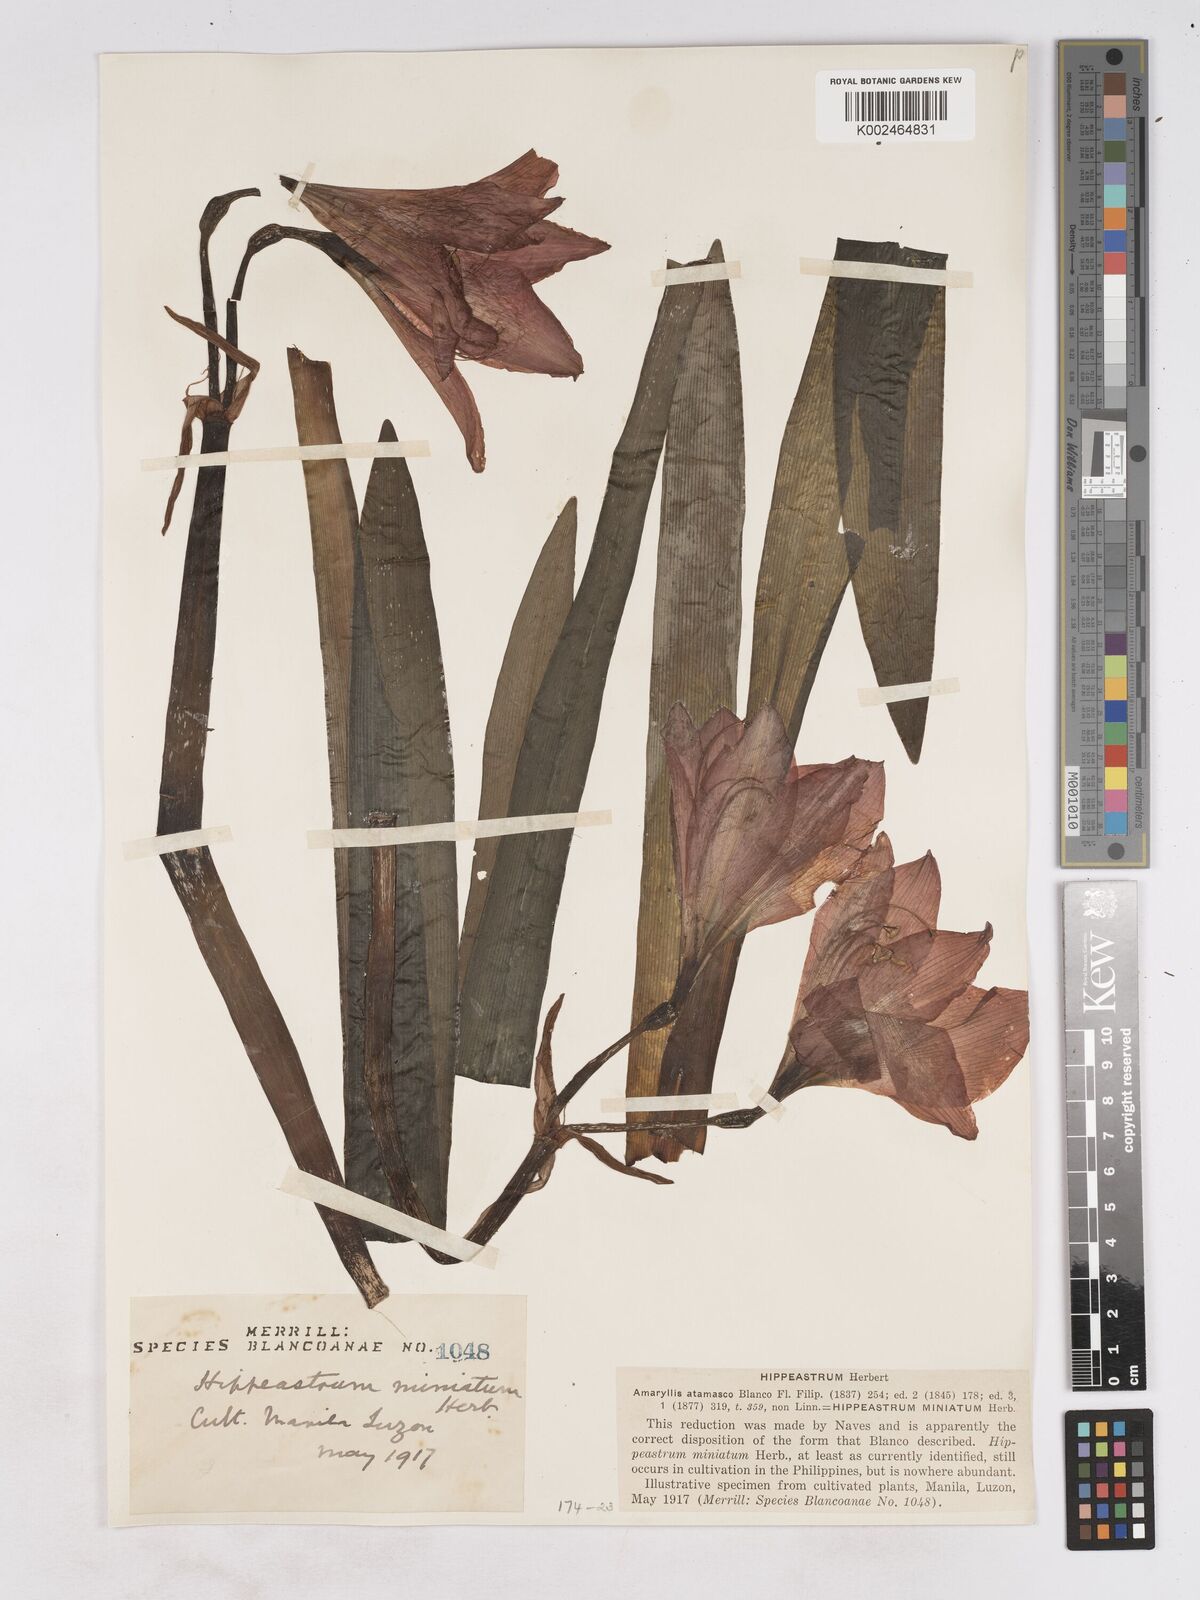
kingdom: Plantae
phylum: Tracheophyta
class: Liliopsida
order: Asparagales
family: Amaryllidaceae
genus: Hippeastrum
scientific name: Hippeastrum
